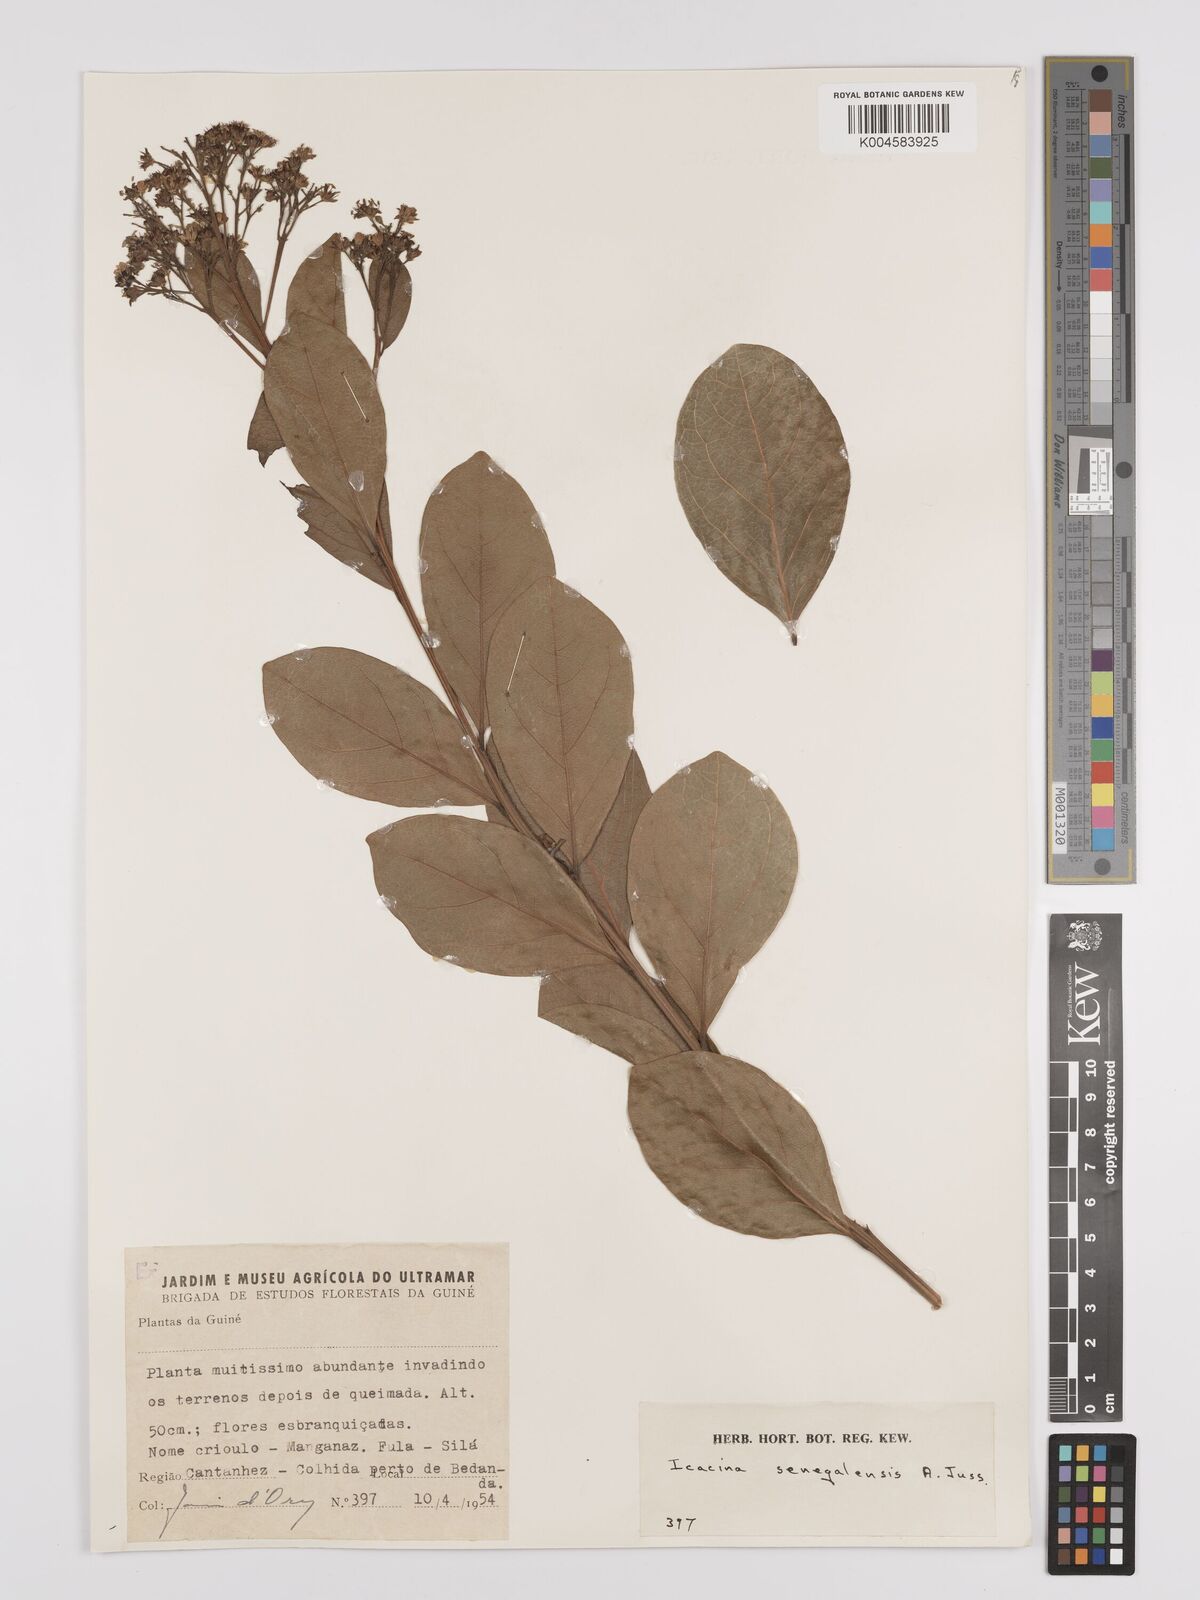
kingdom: Plantae
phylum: Tracheophyta
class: Magnoliopsida
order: Icacinales
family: Icacinaceae
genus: Icacina
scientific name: Icacina oliviformis
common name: False yam
